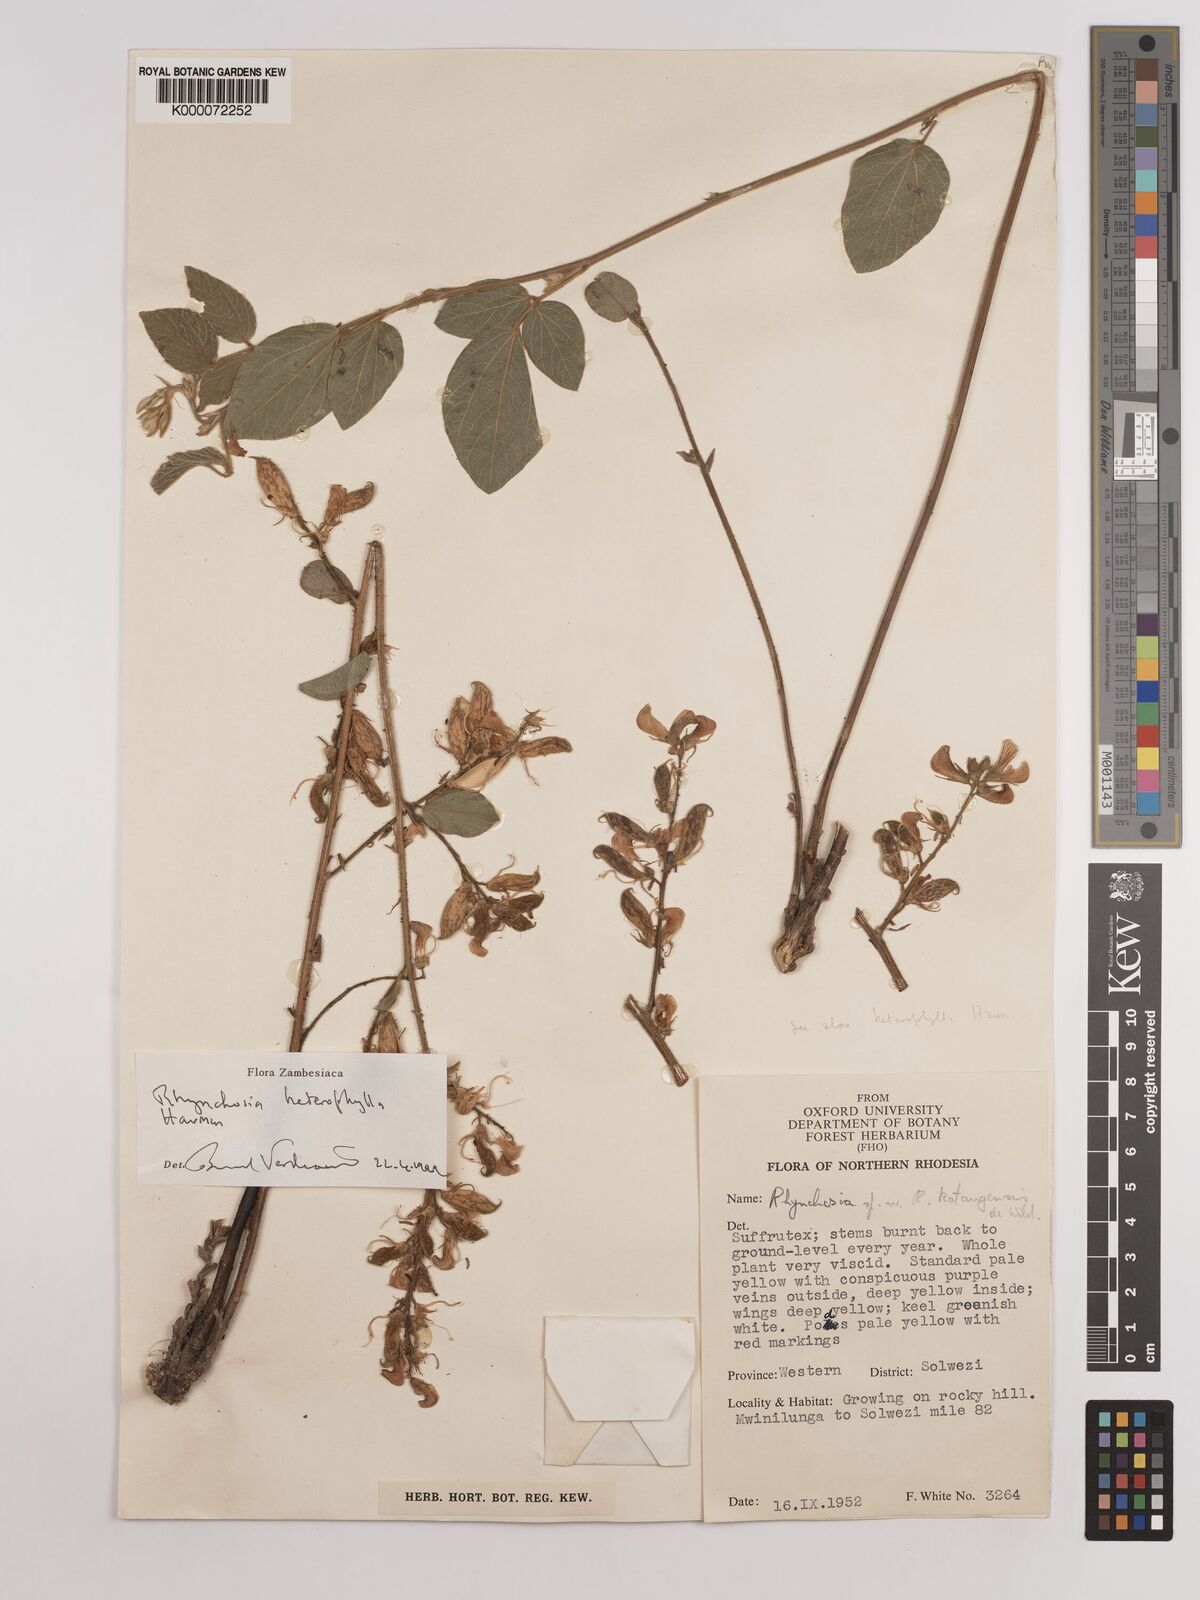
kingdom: Plantae
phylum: Tracheophyta
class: Magnoliopsida
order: Fabales
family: Fabaceae
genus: Rhynchosia
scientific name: Rhynchosia heterophylla
